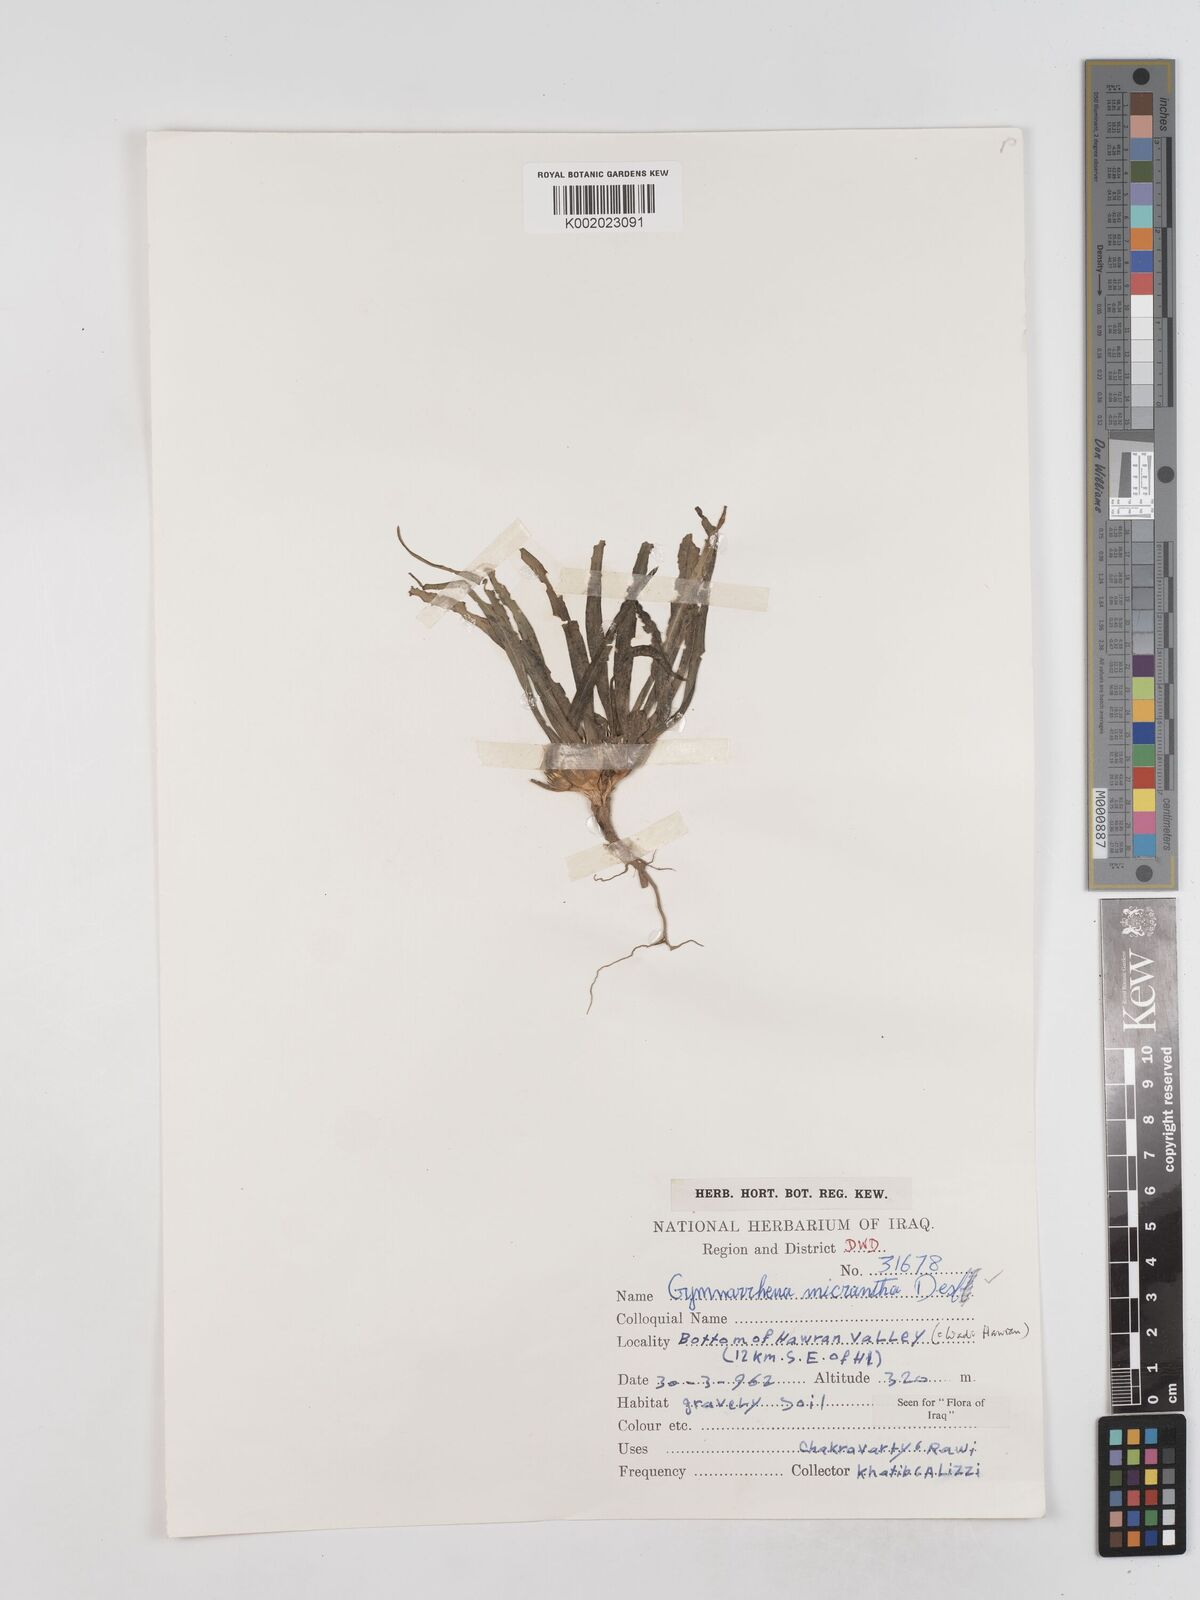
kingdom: Plantae
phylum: Tracheophyta
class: Magnoliopsida
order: Asterales
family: Asteraceae
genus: Gymnarrhena
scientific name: Gymnarrhena micrantha
